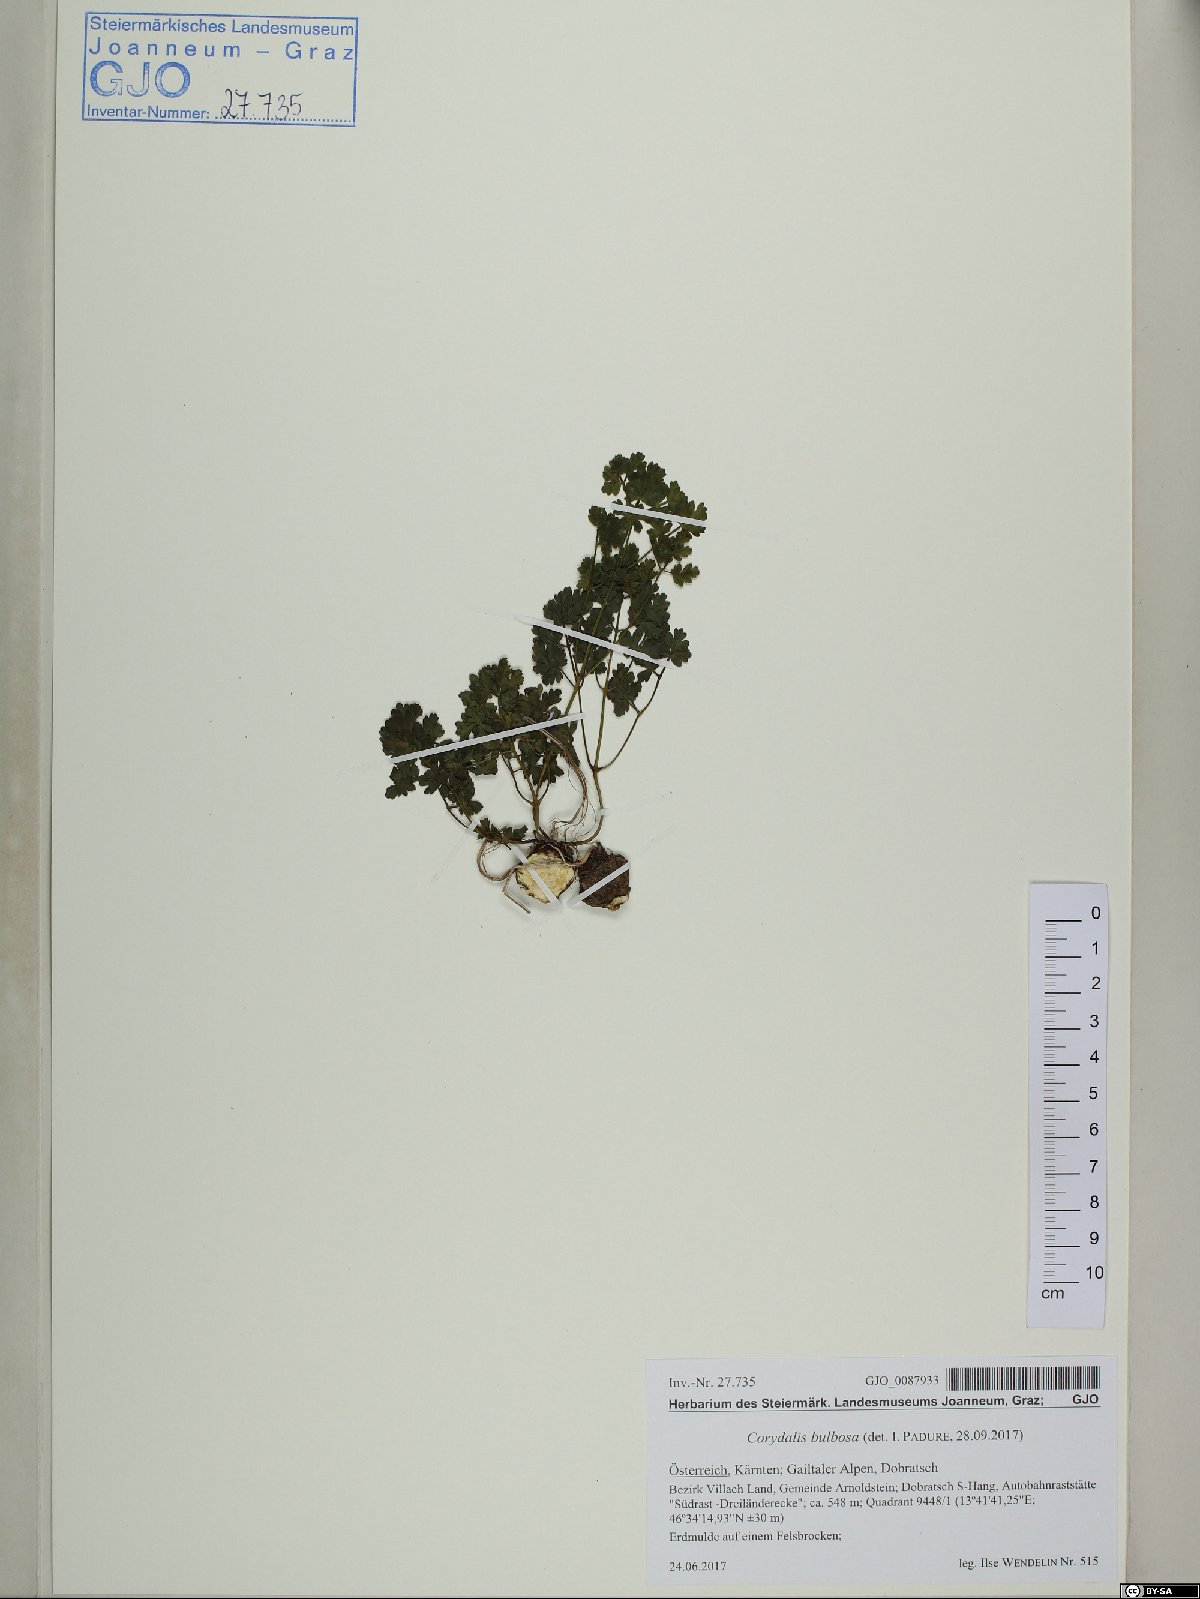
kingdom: Plantae
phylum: Tracheophyta
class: Magnoliopsida
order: Ranunculales
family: Ranunculaceae
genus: Thalictrum
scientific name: Thalictrum minus
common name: Lesser meadow-rue
